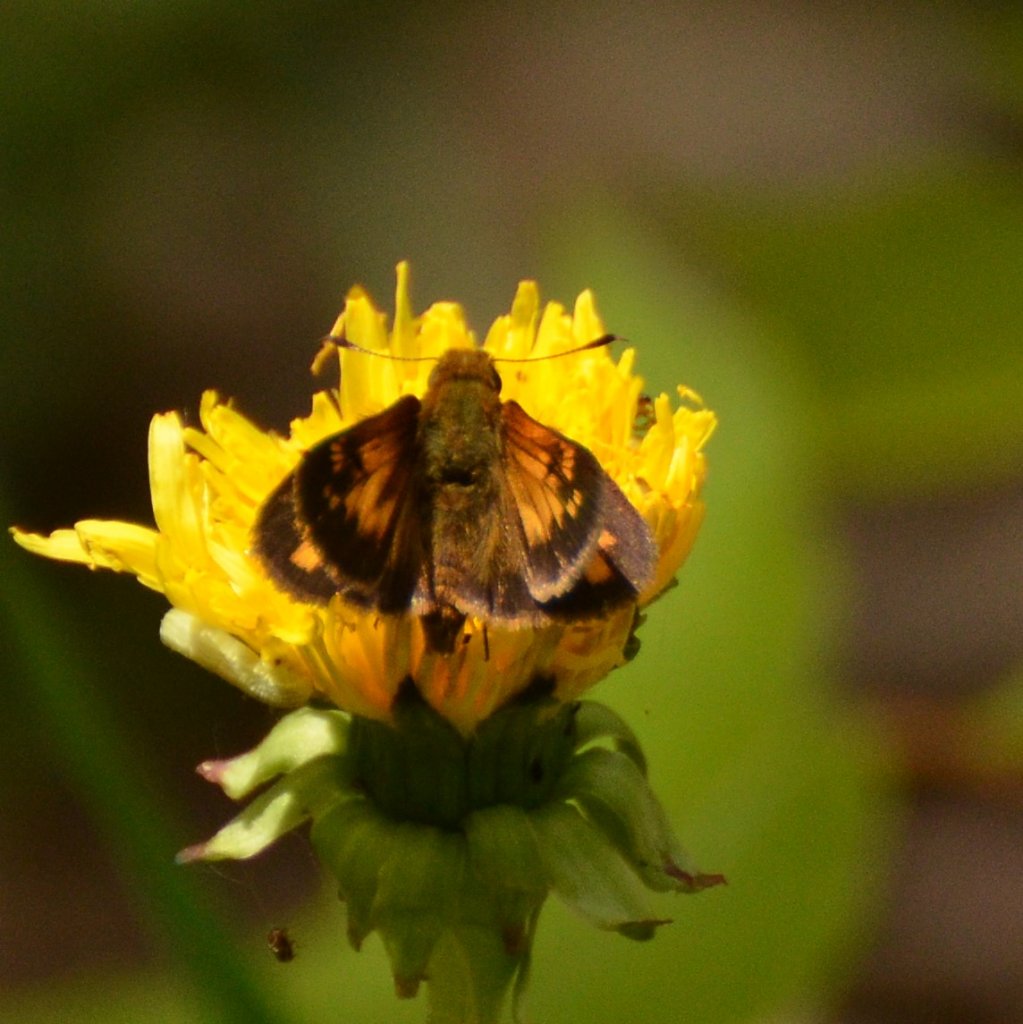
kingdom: Animalia
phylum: Arthropoda
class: Insecta
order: Lepidoptera
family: Hesperiidae
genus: Lon
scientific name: Lon hobomok
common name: Hobomok Skipper
